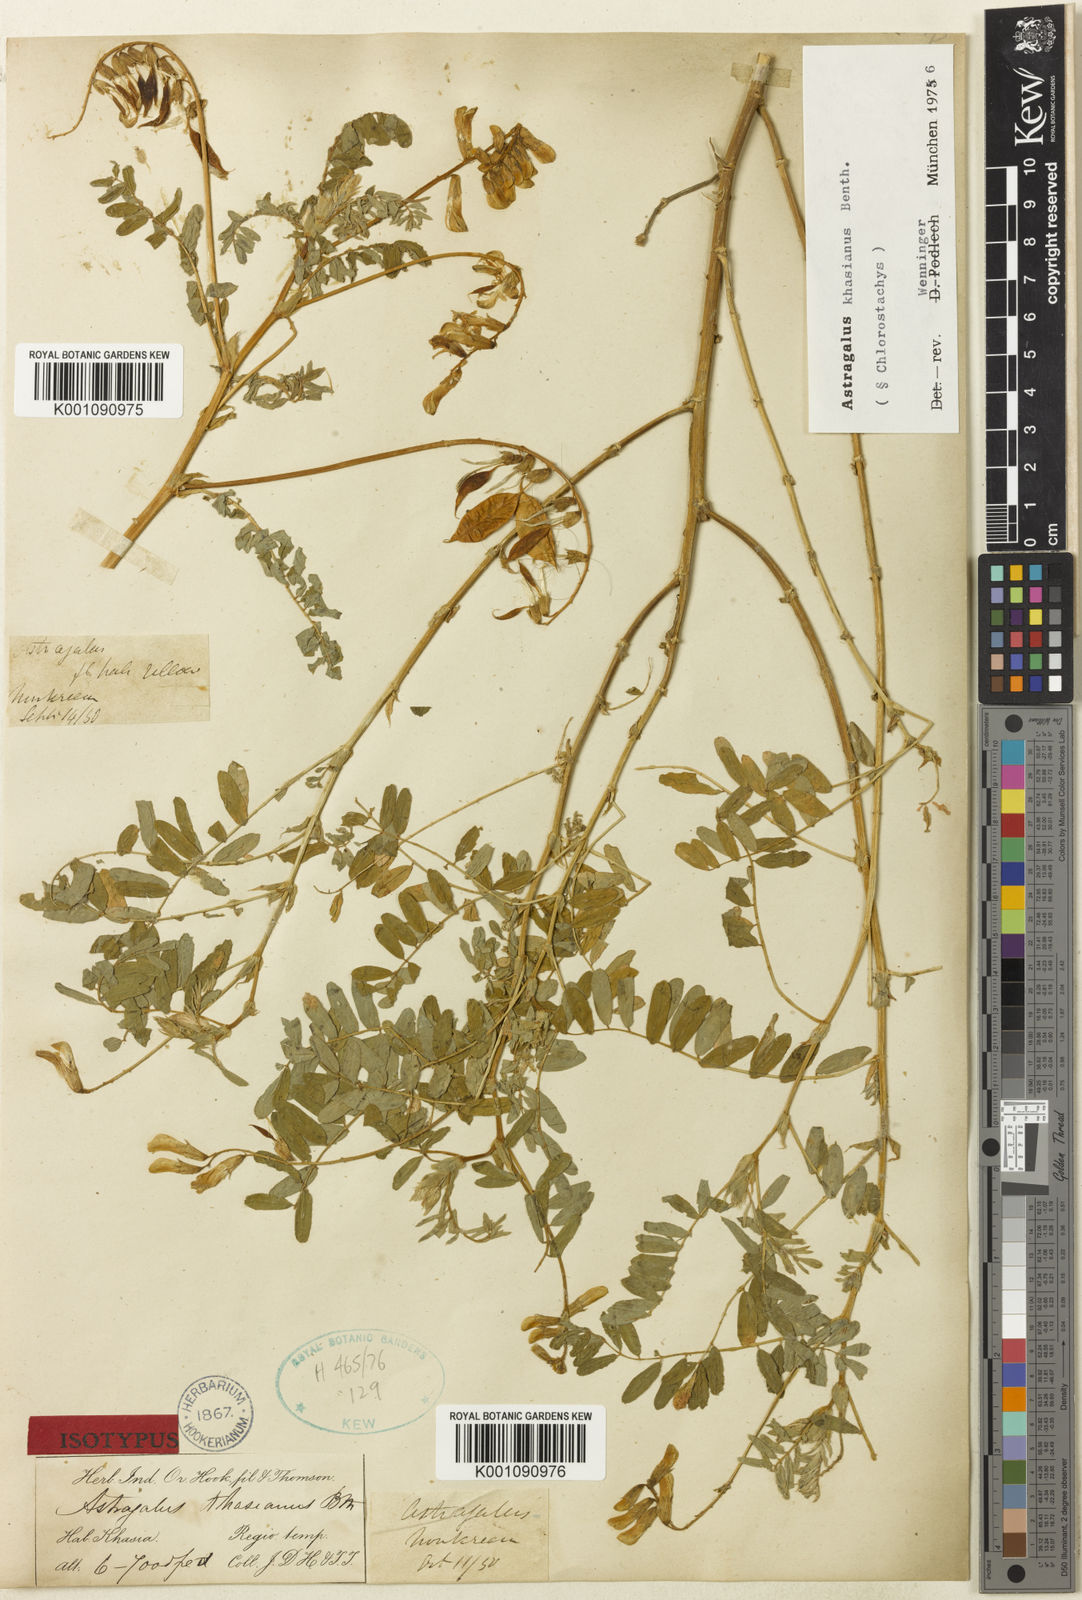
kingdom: Plantae
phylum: Tracheophyta
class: Magnoliopsida
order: Fabales
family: Fabaceae
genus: Astragalus
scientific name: Astragalus
